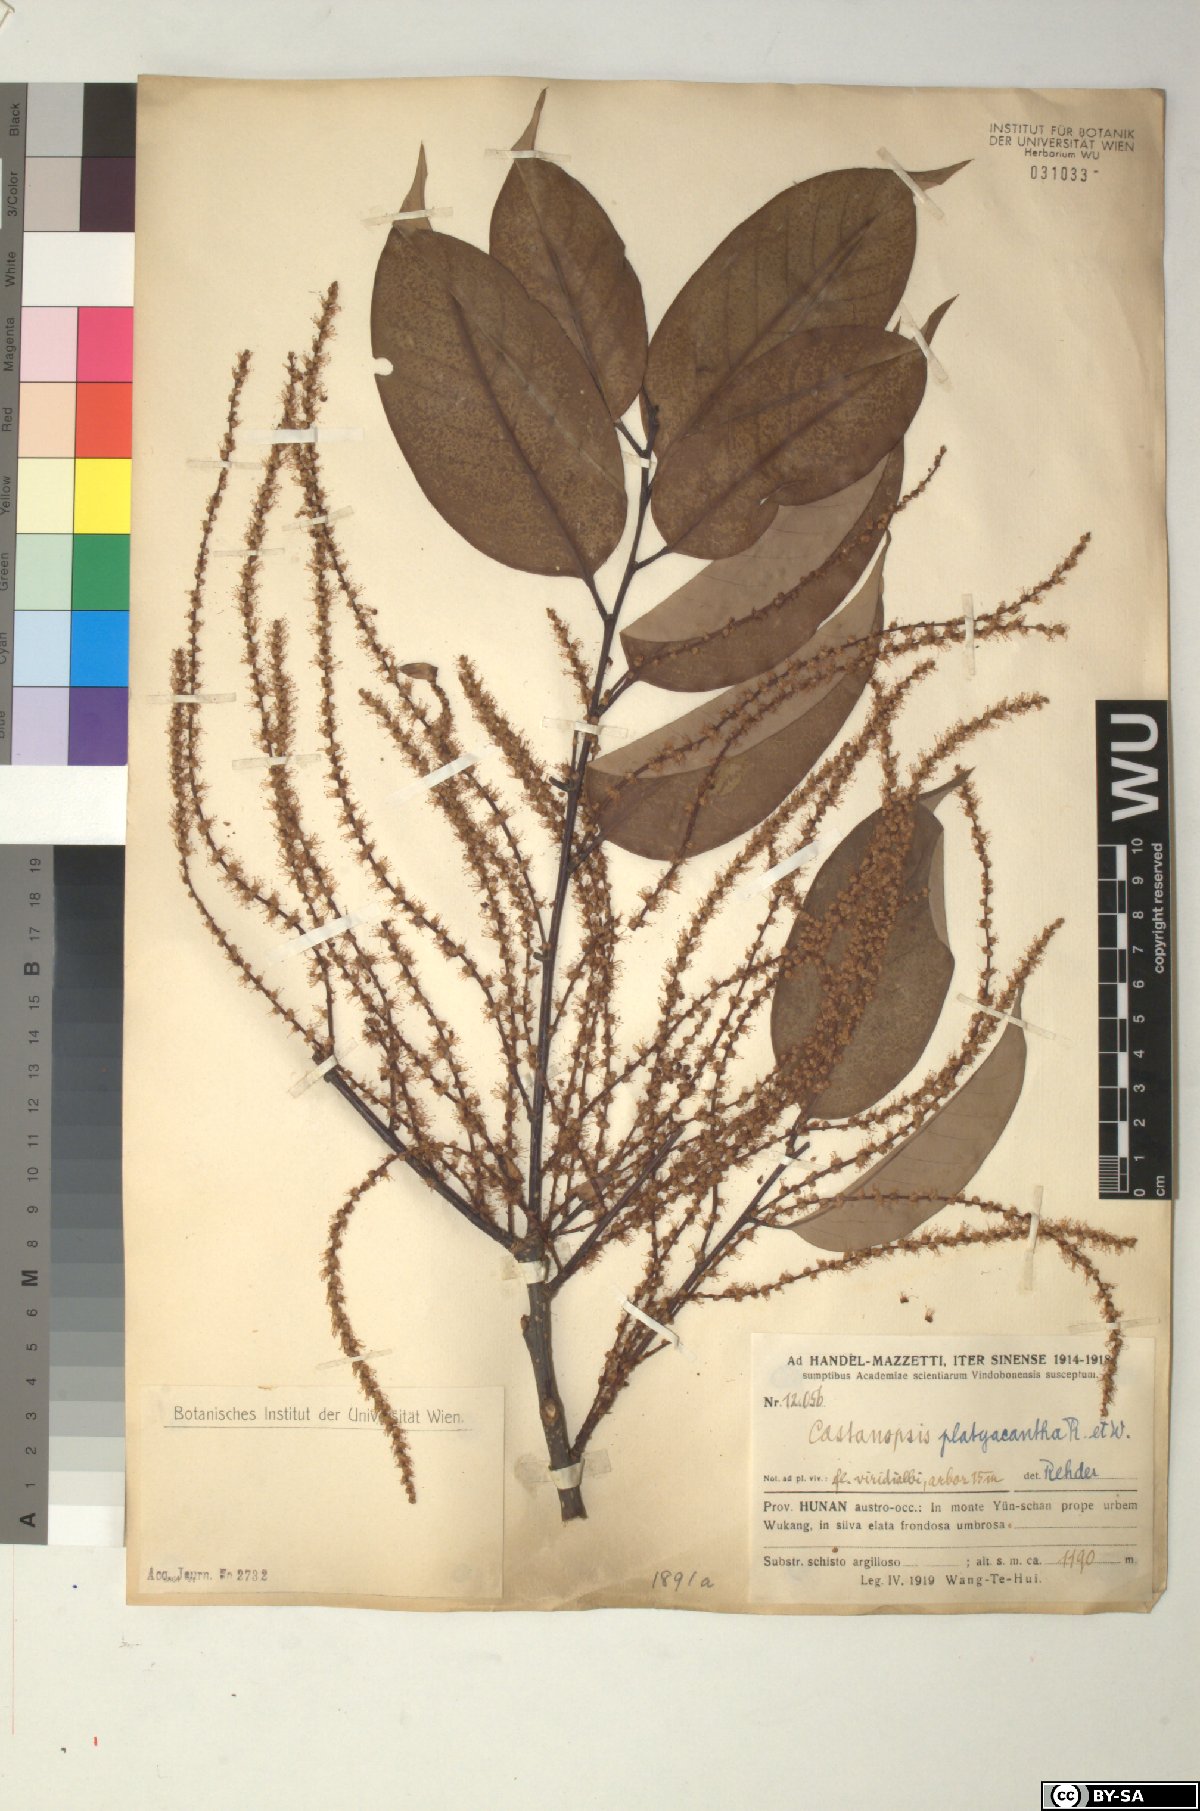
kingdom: Plantae
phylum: Tracheophyta
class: Magnoliopsida
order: Fagales
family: Fagaceae
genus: Castanopsis
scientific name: Castanopsis platyacantha
